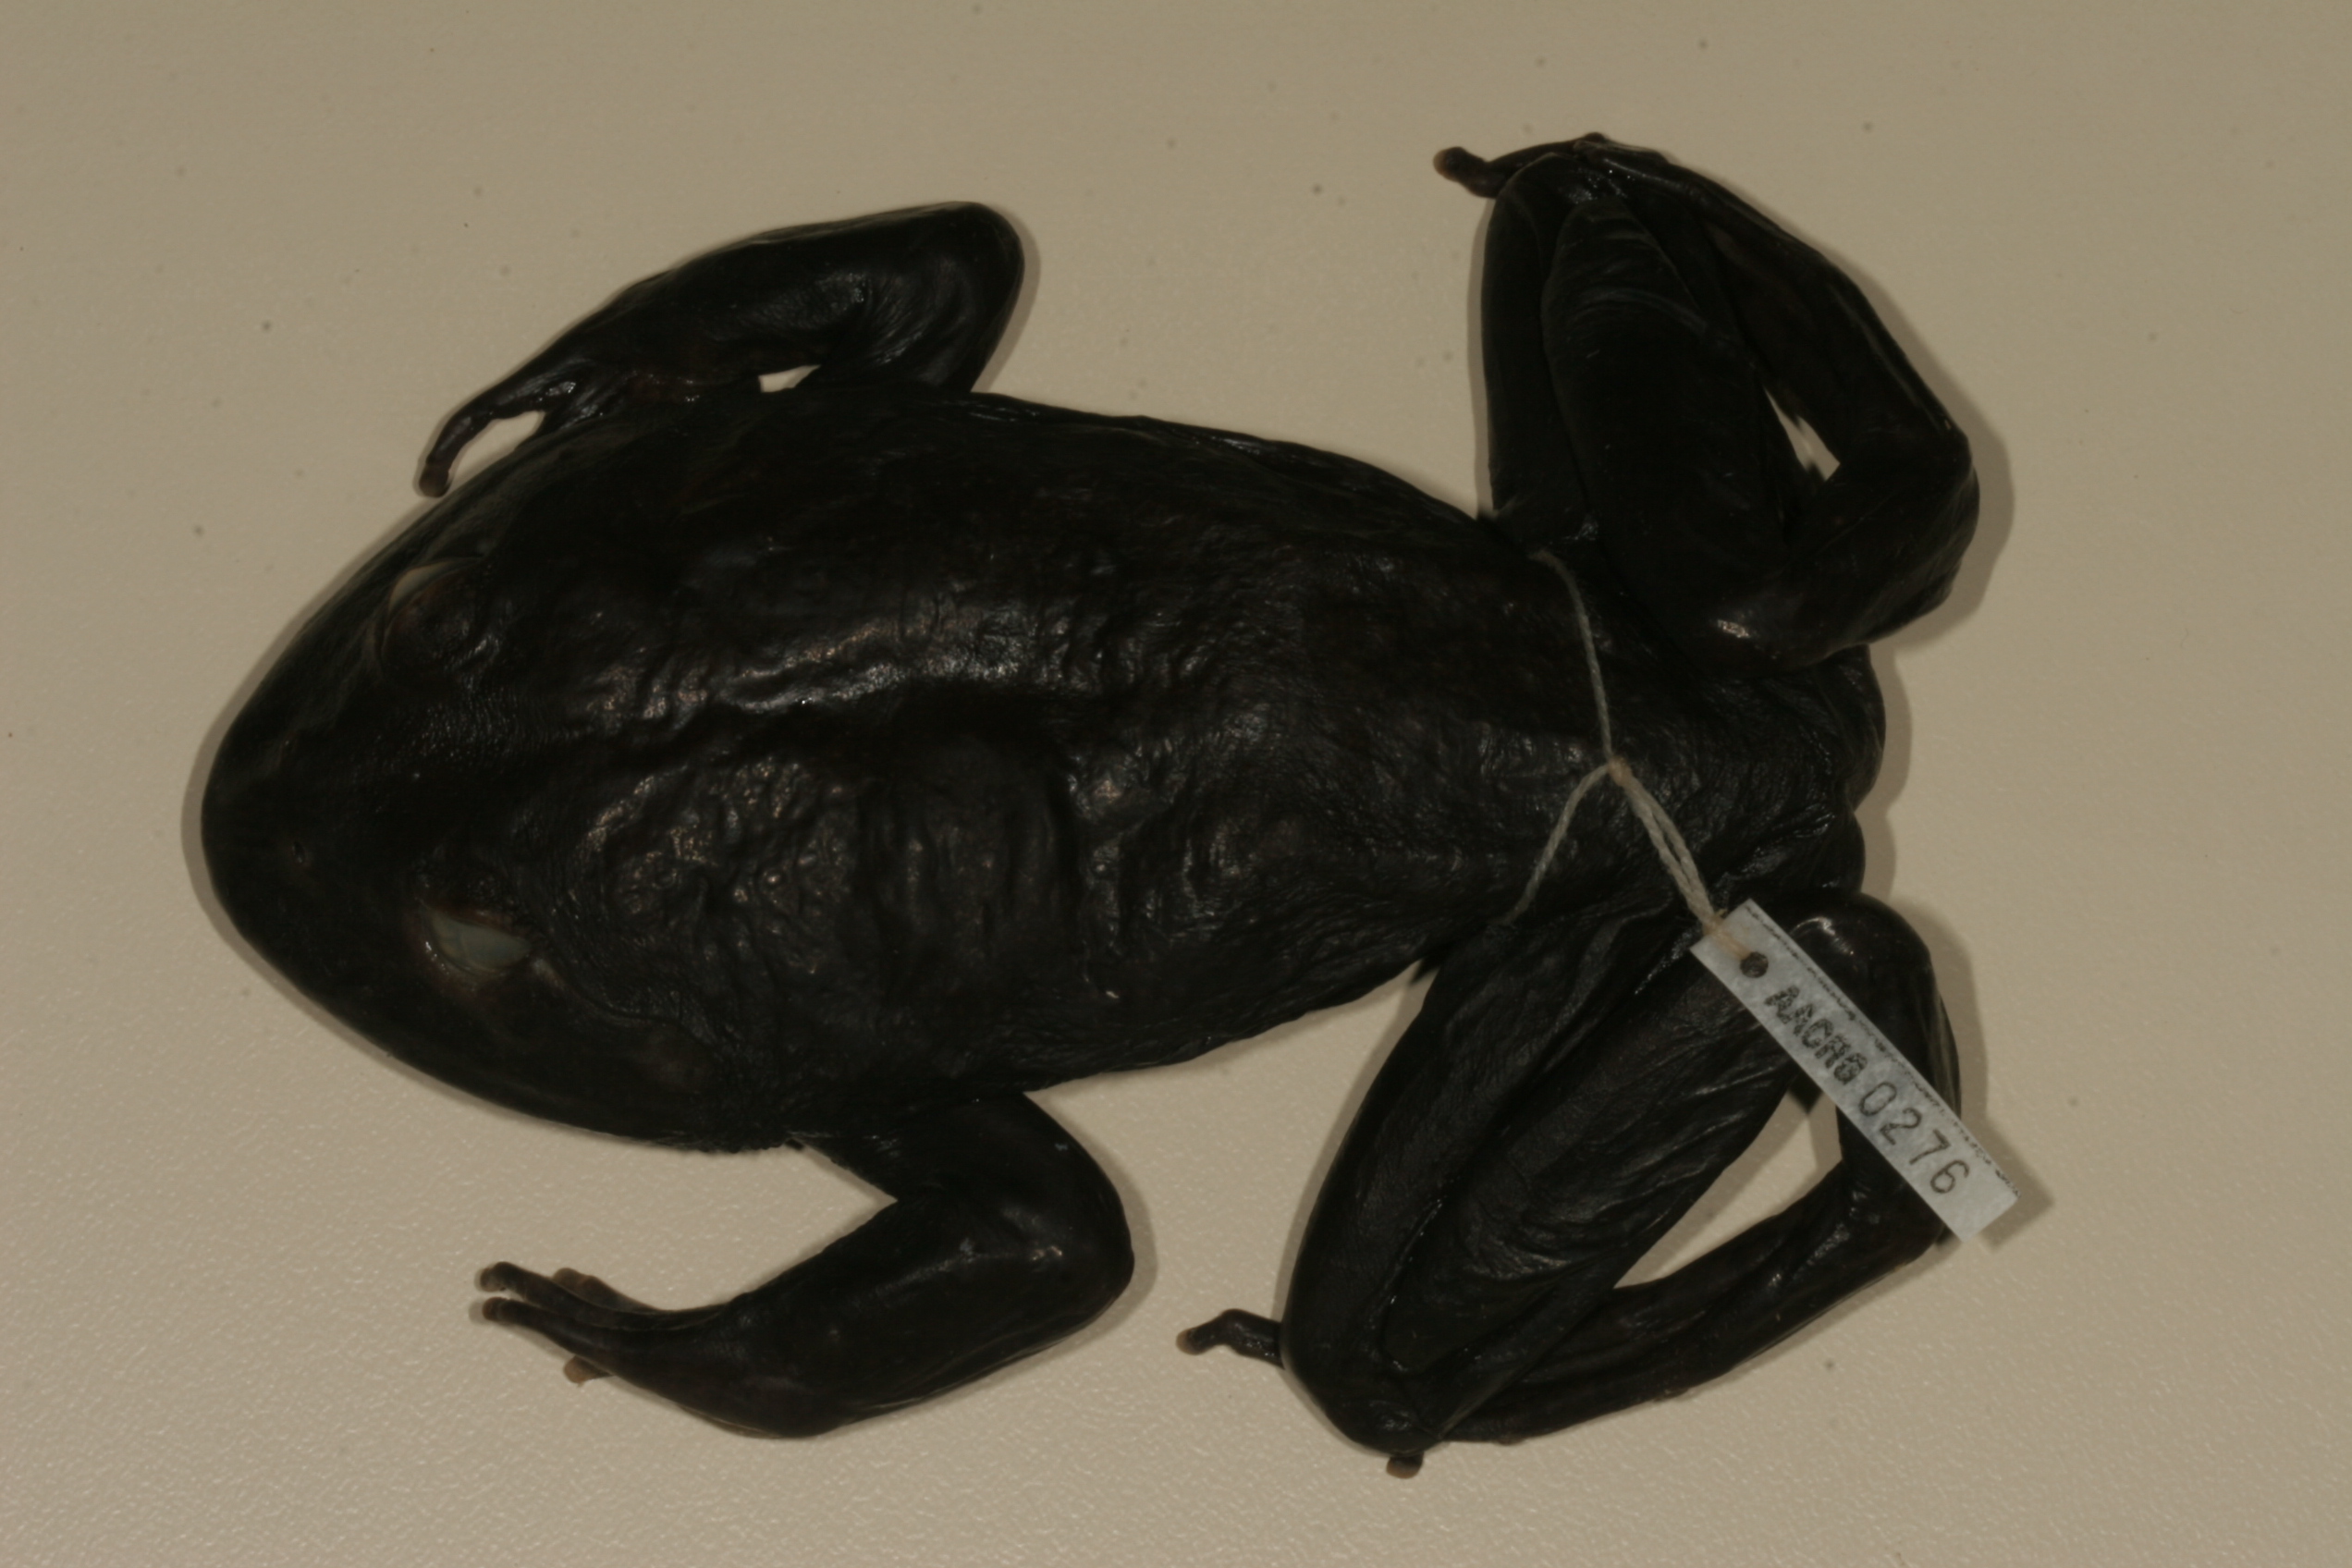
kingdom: Animalia
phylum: Chordata
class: Amphibia
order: Anura
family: Pyxicephalidae
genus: Amietia
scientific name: Amietia vertebralis
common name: Drakensberg stream frog
